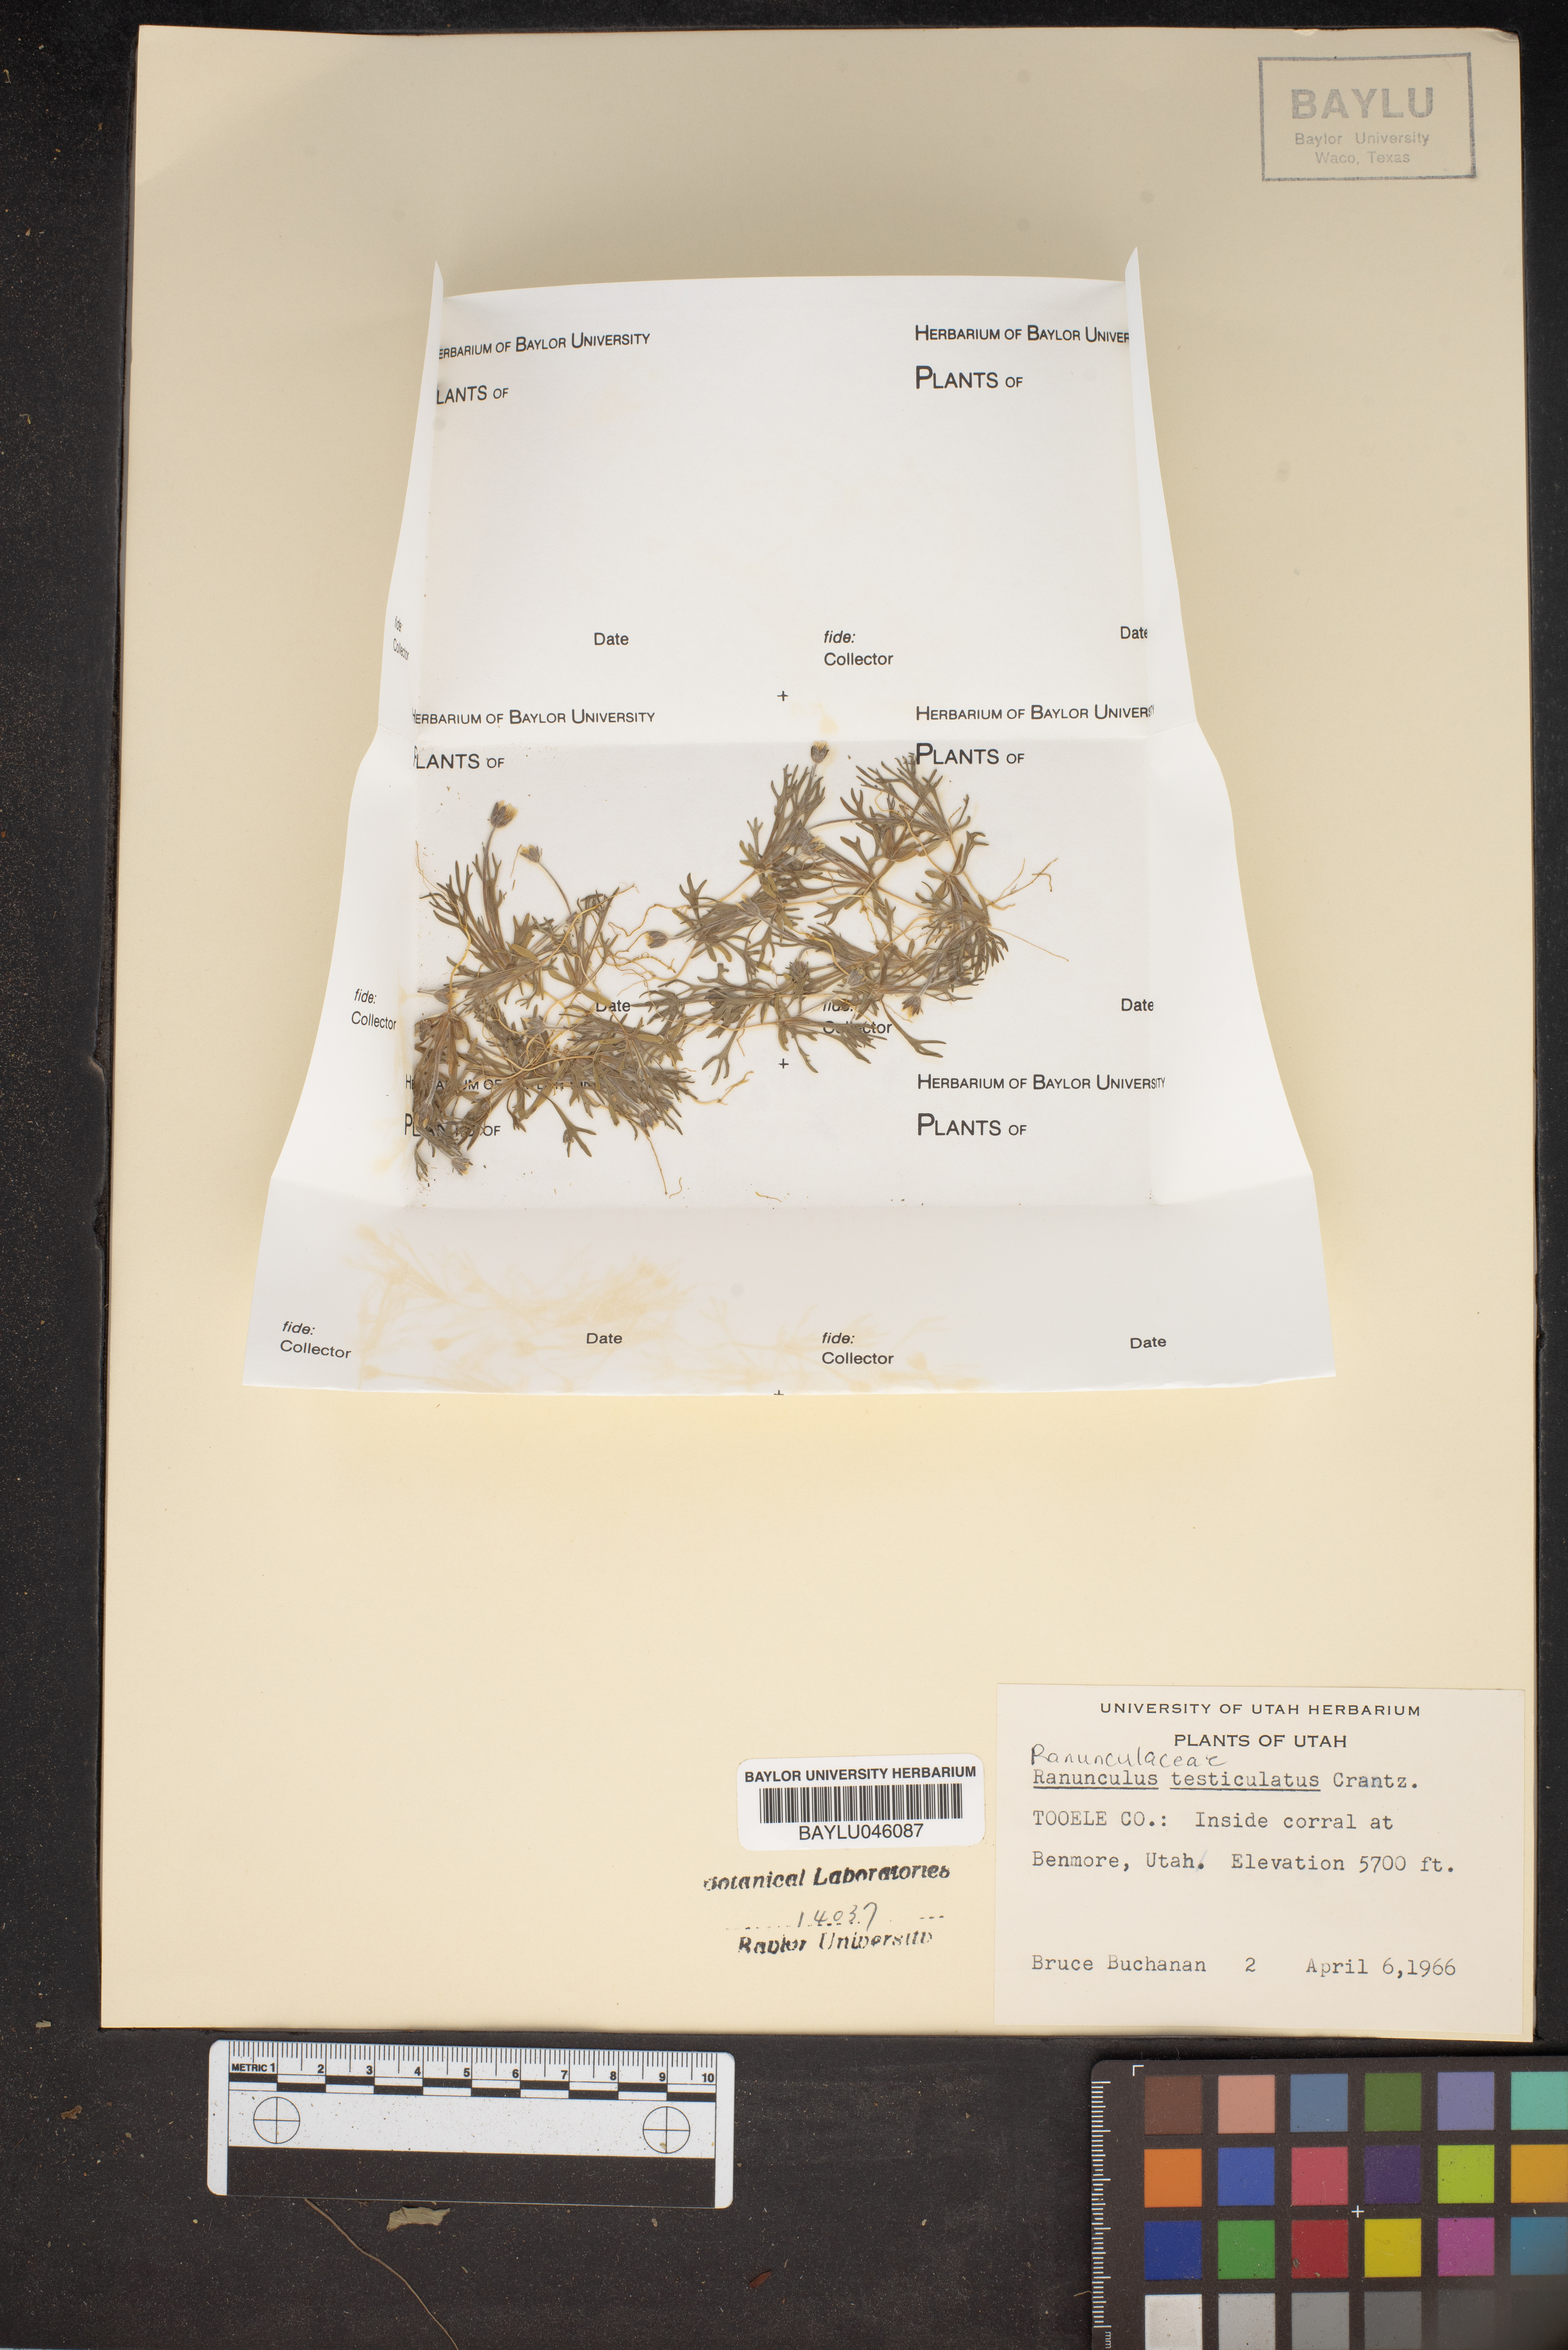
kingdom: Plantae
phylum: Tracheophyta
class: Magnoliopsida
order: Ranunculales
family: Ranunculaceae
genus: Ceratocephala
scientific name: Ceratocephala orthoceras
